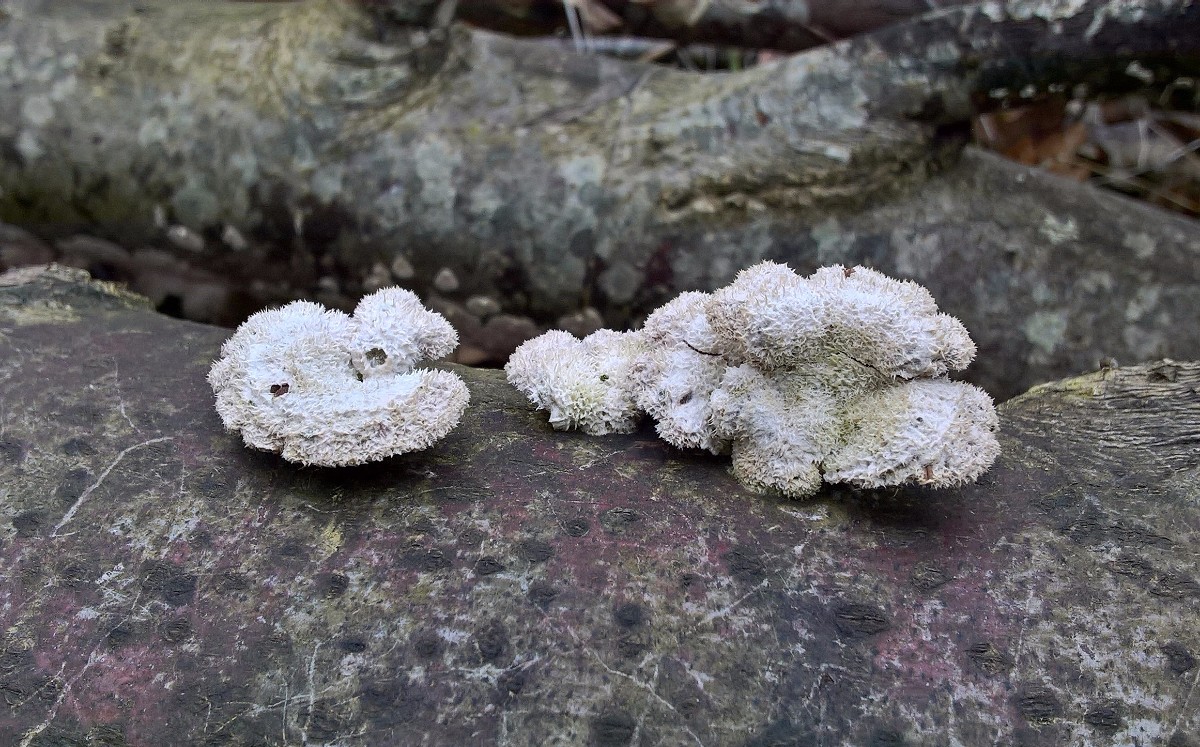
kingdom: Fungi
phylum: Basidiomycota
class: Agaricomycetes
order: Agaricales
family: Schizophyllaceae
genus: Schizophyllum
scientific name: Schizophyllum commune
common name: kløvblad
